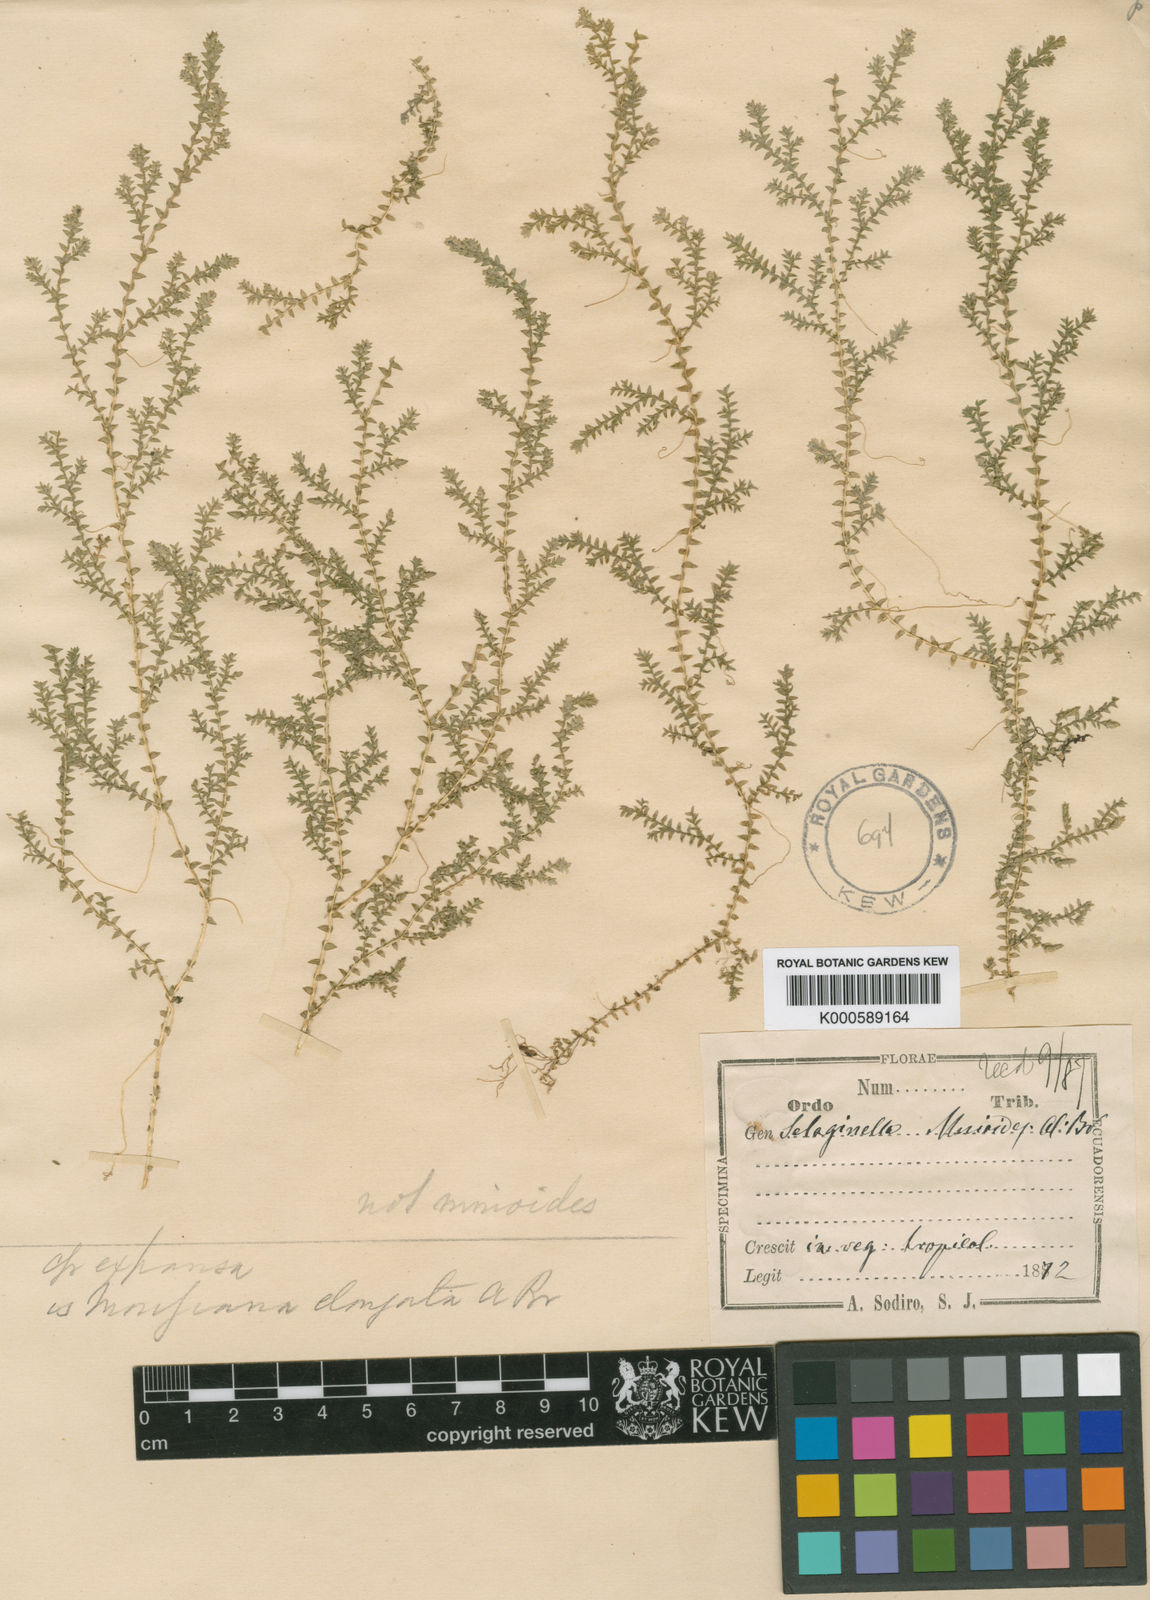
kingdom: Plantae
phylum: Tracheophyta
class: Lycopodiopsida
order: Selaginellales
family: Selaginellaceae
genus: Selaginella
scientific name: Selaginella expansa
